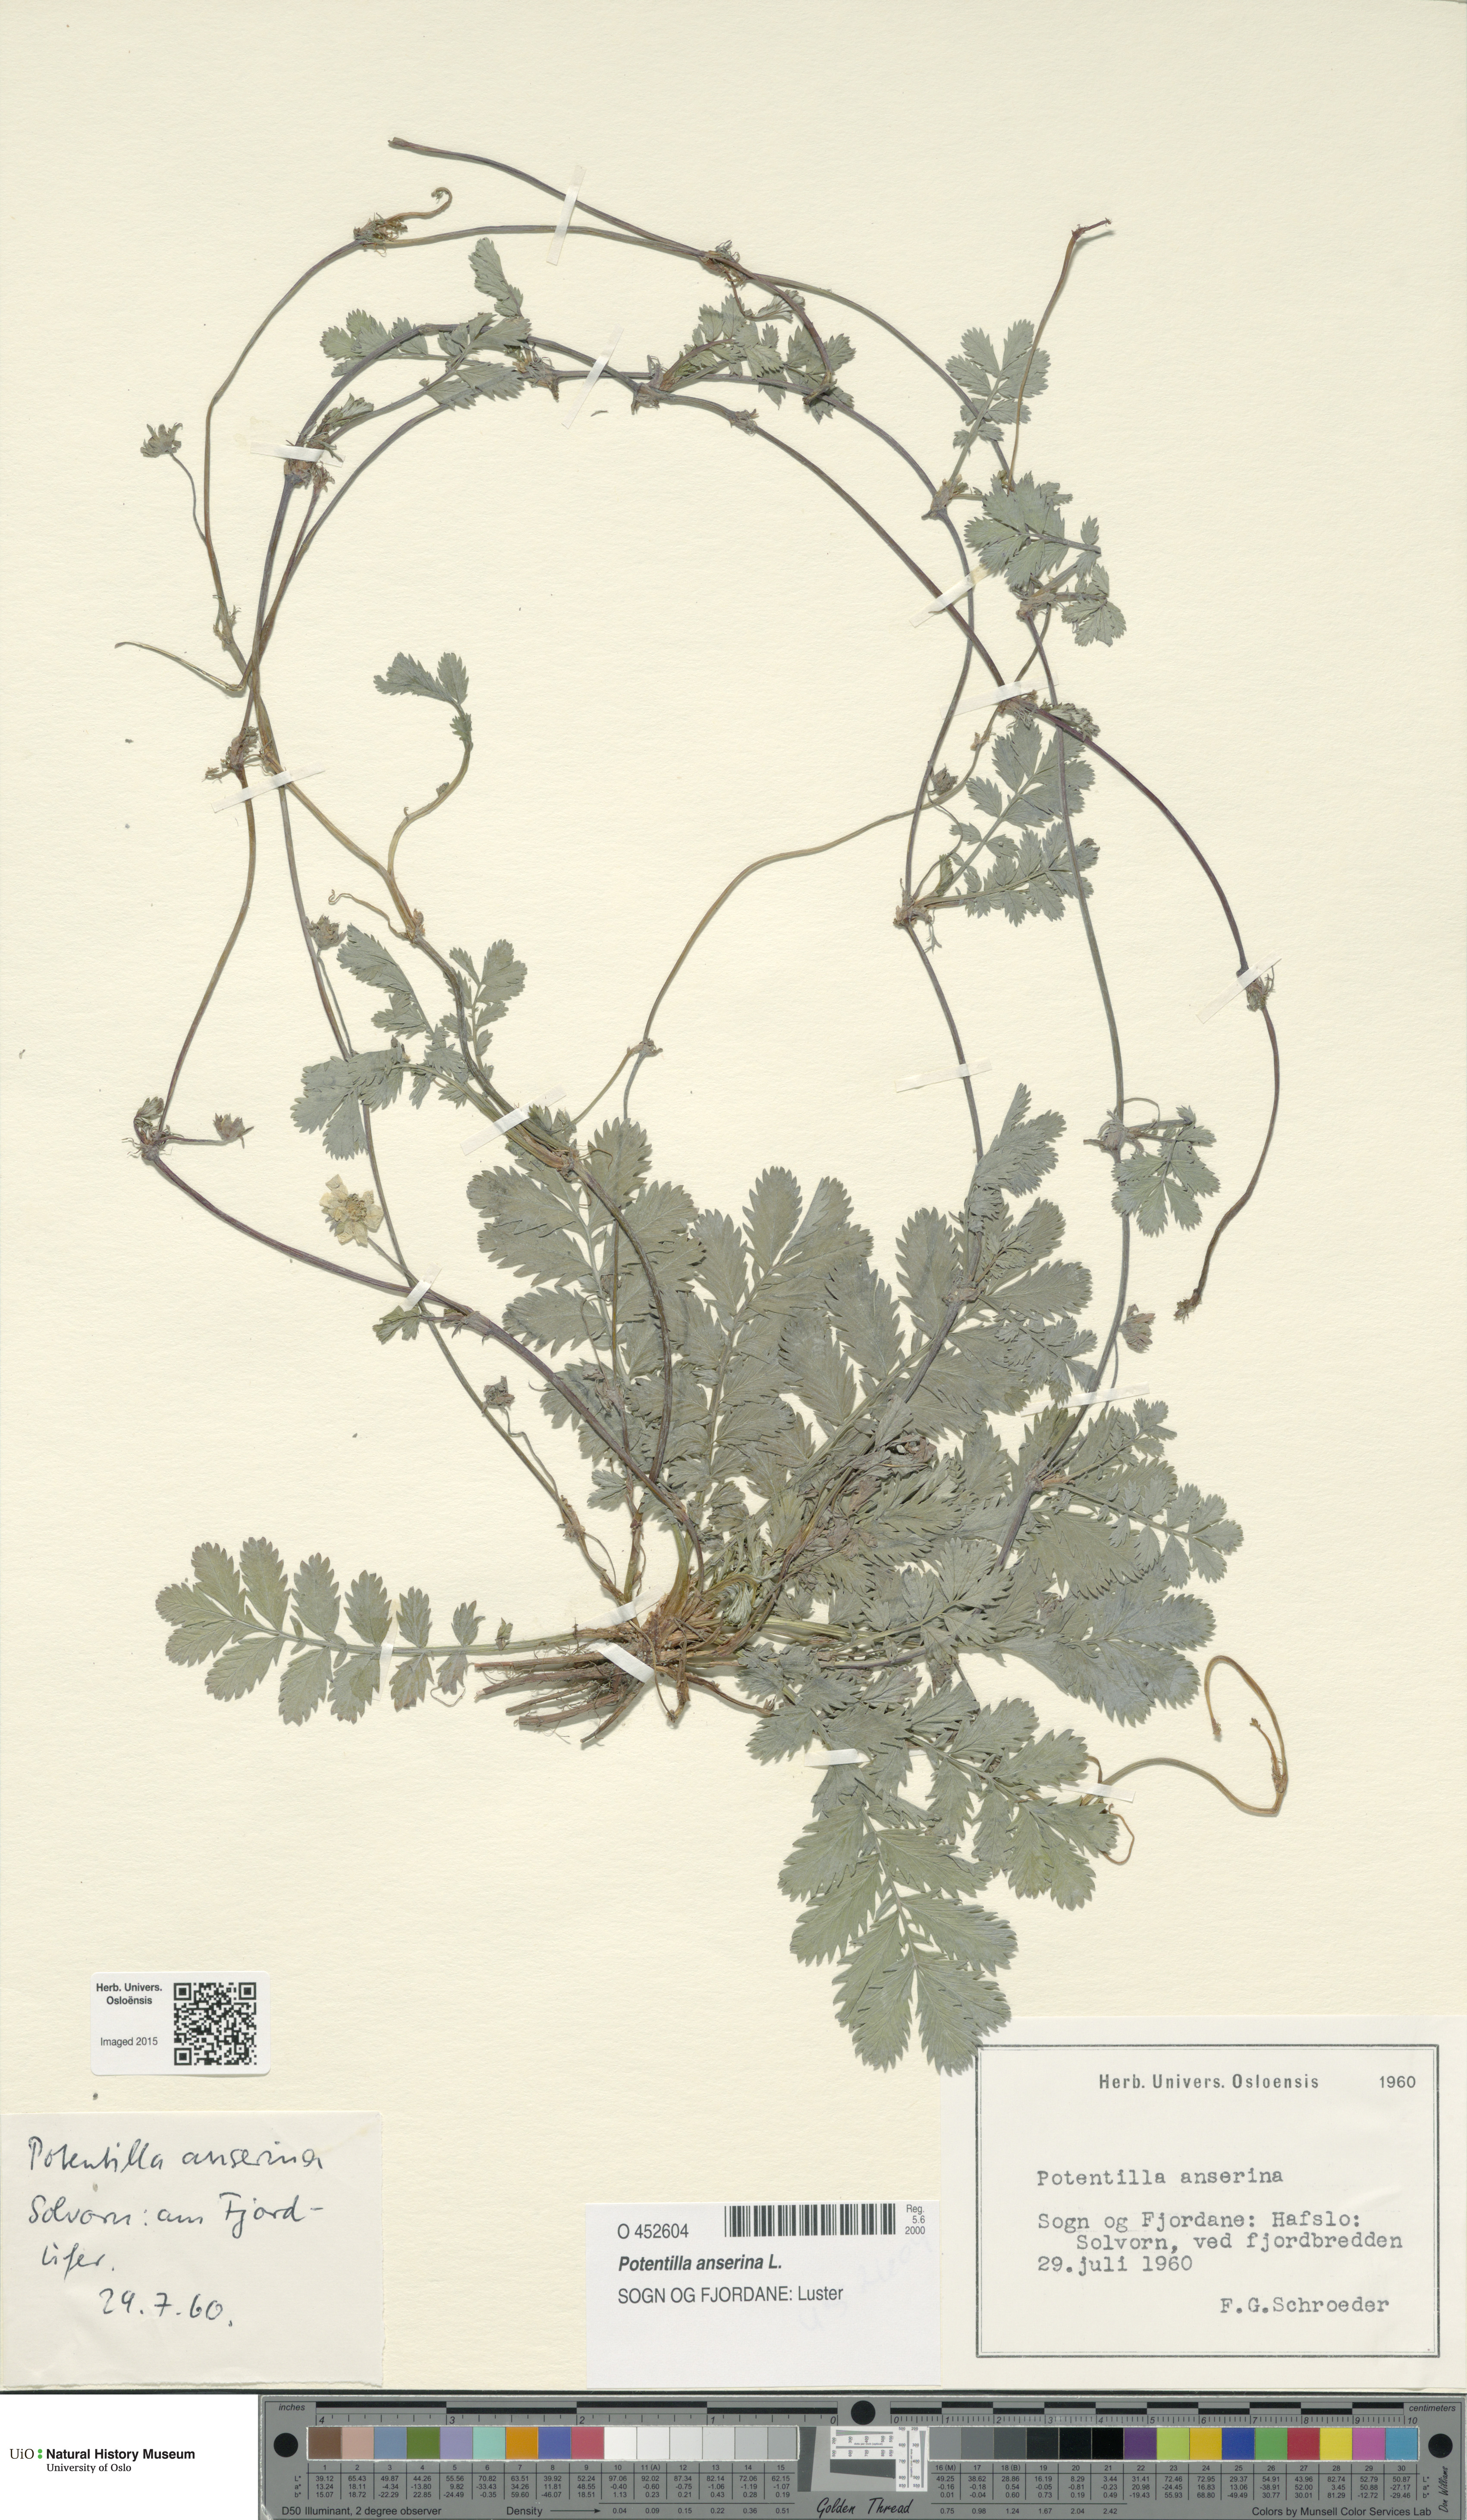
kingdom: Plantae
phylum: Tracheophyta
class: Magnoliopsida
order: Rosales
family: Rosaceae
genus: Argentina
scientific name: Argentina anserina
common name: Common silverweed
